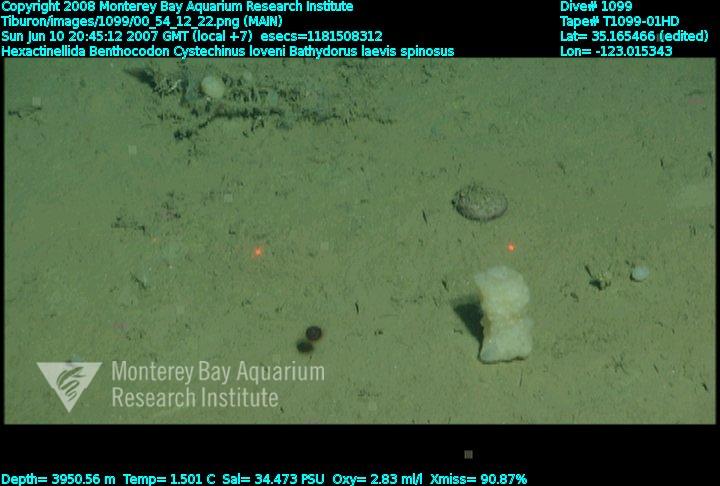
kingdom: Animalia
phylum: Porifera
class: Hexactinellida
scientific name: Hexactinellida
